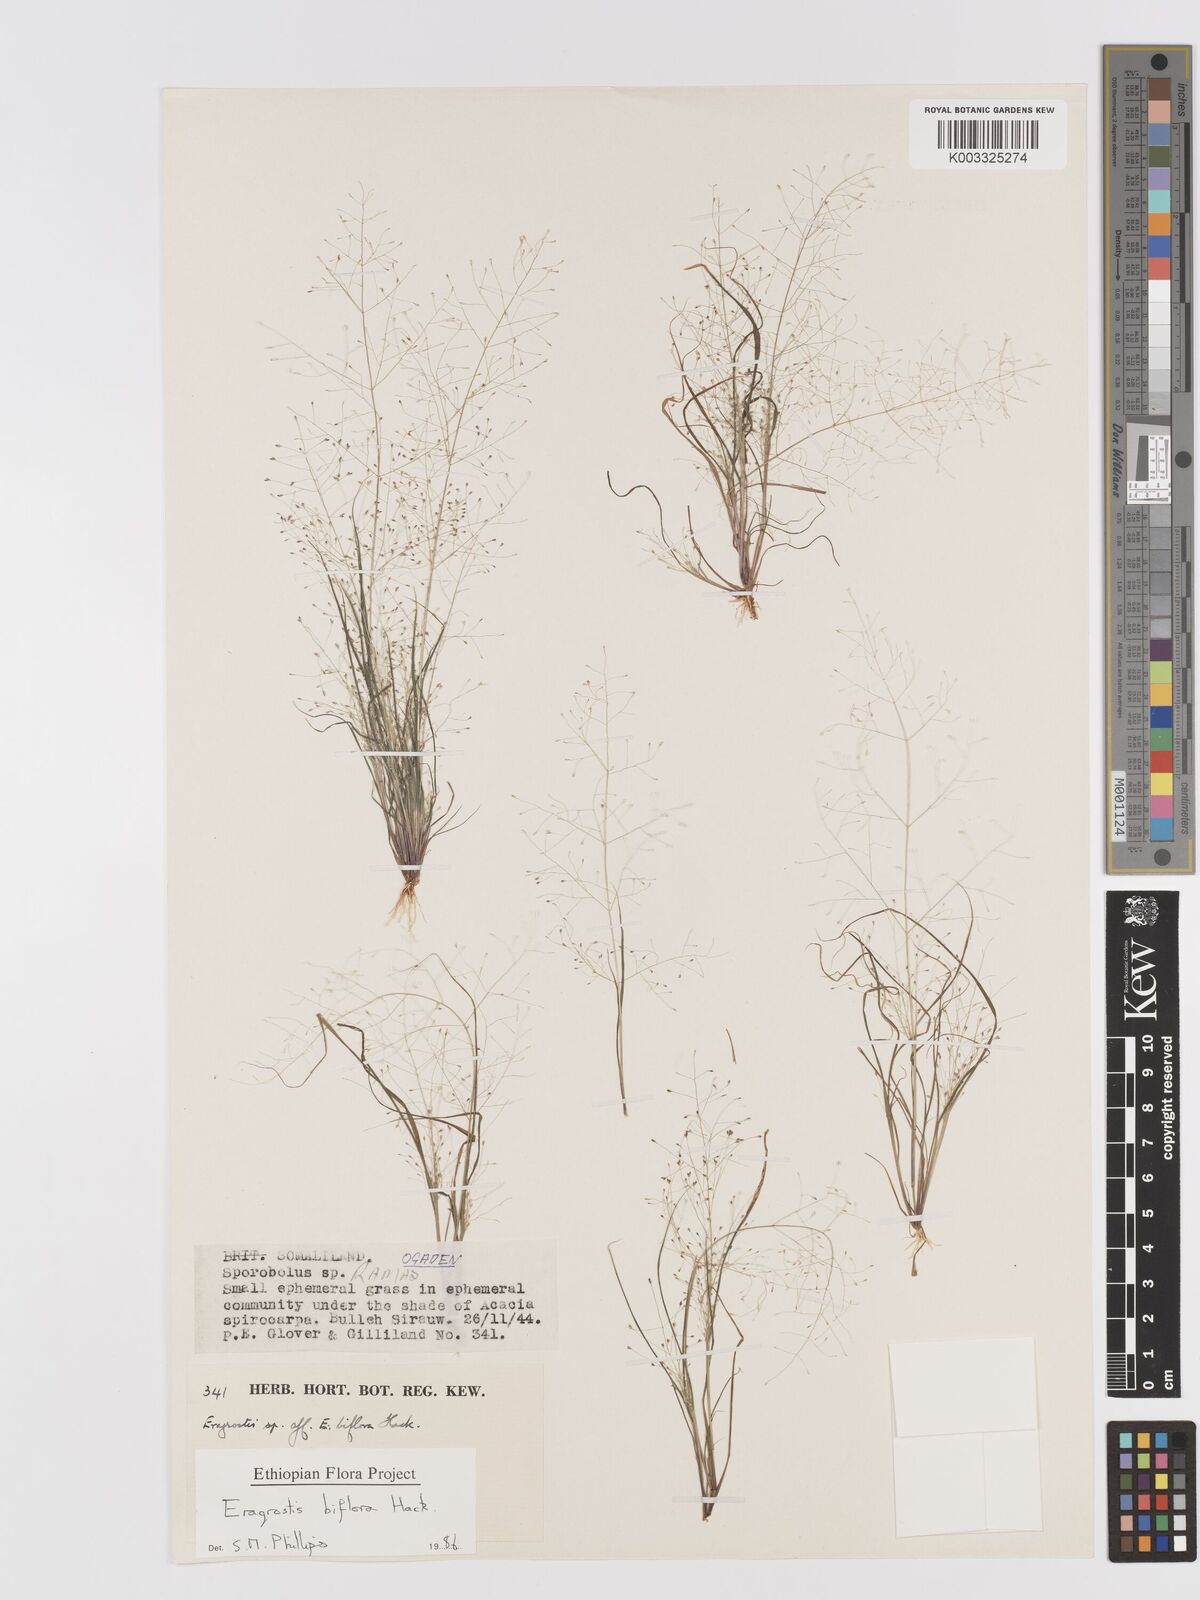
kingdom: Plantae
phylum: Tracheophyta
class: Liliopsida
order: Poales
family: Poaceae
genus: Eragrostis
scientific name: Eragrostis biflora
